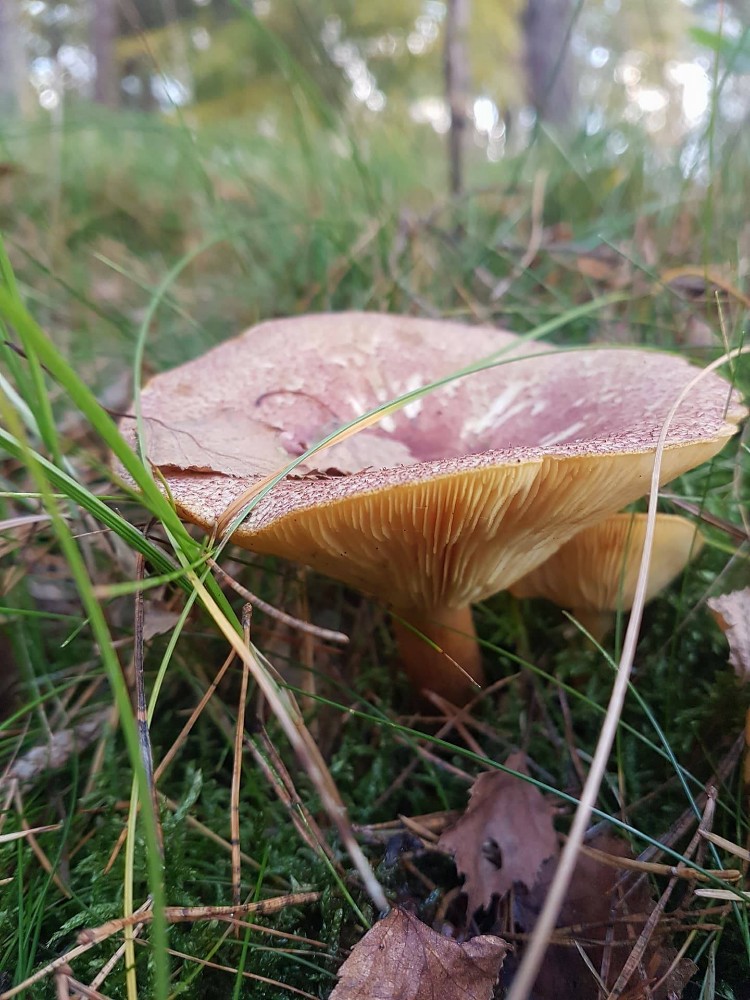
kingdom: Fungi
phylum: Basidiomycota
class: Agaricomycetes
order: Agaricales
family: Tricholomataceae
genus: Tricholomopsis
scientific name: Tricholomopsis rutilans
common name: purpur-væbnerhat
